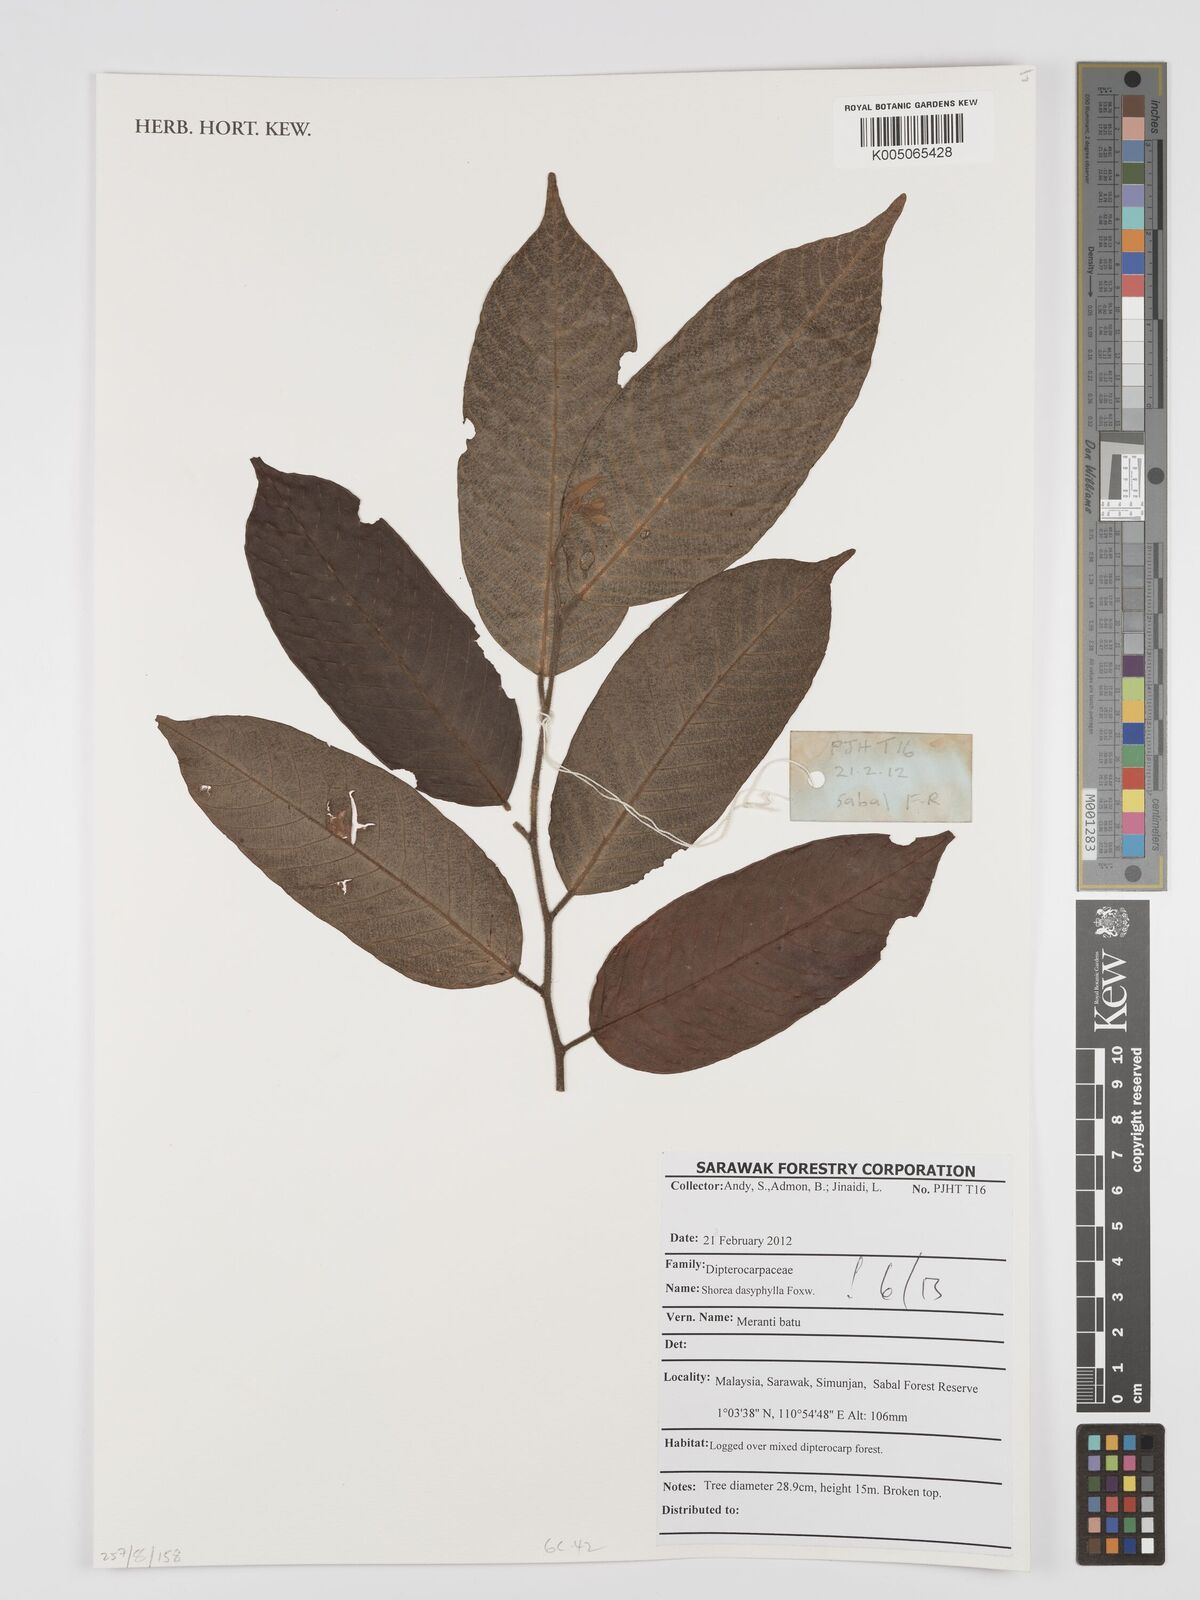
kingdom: Plantae
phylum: Tracheophyta
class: Magnoliopsida
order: Malvales
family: Dipterocarpaceae
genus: Shorea
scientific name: Shorea dasyphylla
